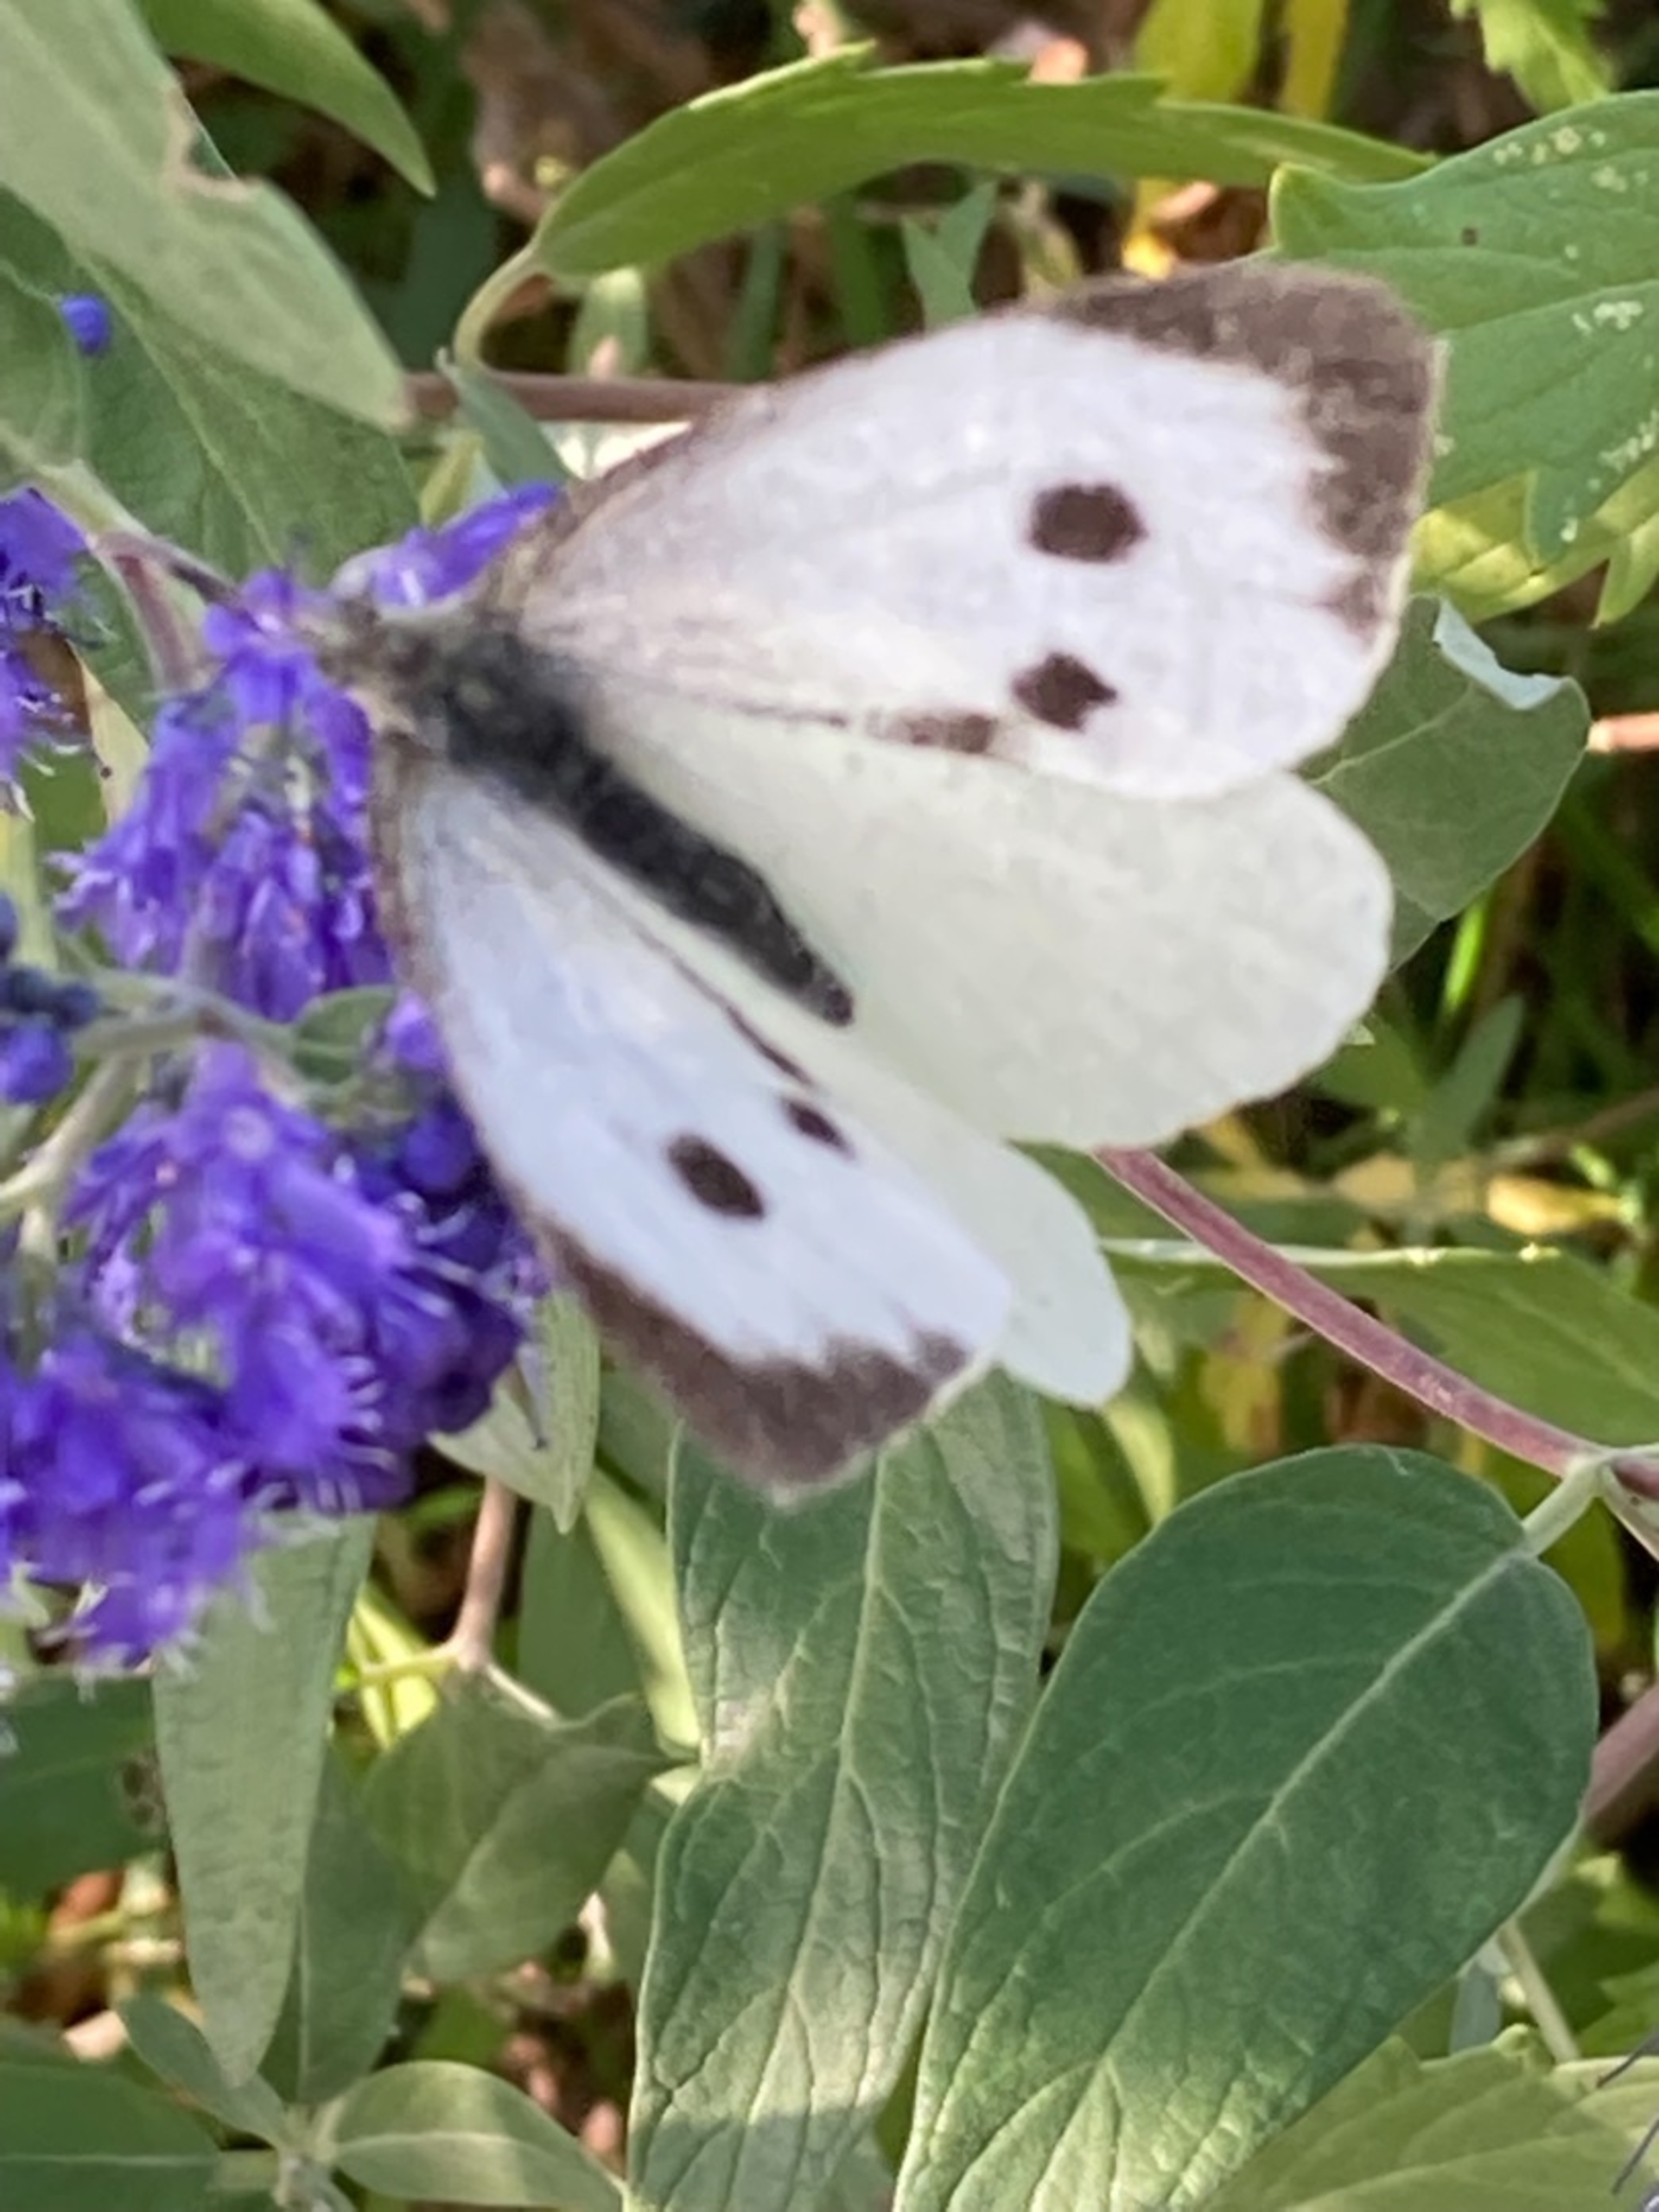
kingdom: Animalia
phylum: Arthropoda
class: Insecta
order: Lepidoptera
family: Pieridae
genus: Pieris
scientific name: Pieris brassicae
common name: Stor kålsommerfugl
